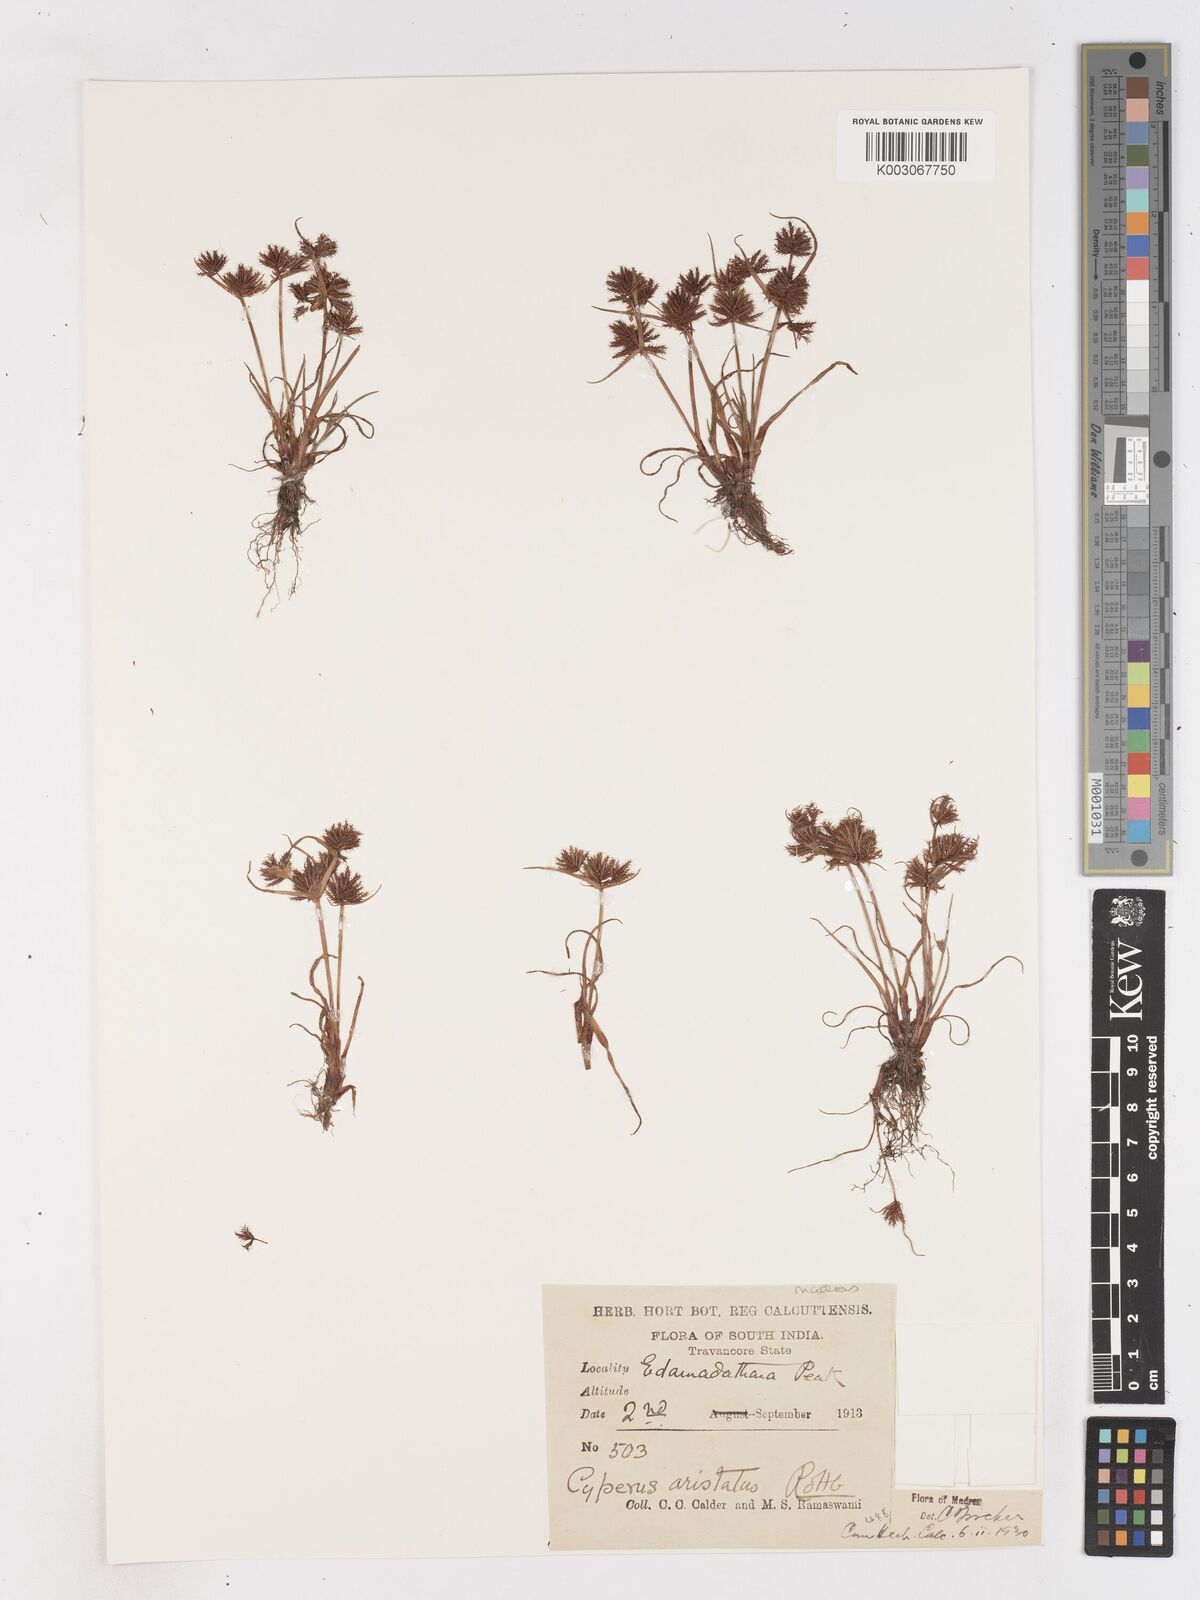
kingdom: Plantae
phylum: Tracheophyta
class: Liliopsida
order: Poales
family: Cyperaceae
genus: Cyperus
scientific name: Cyperus squarrosus
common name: Awned cyperus
